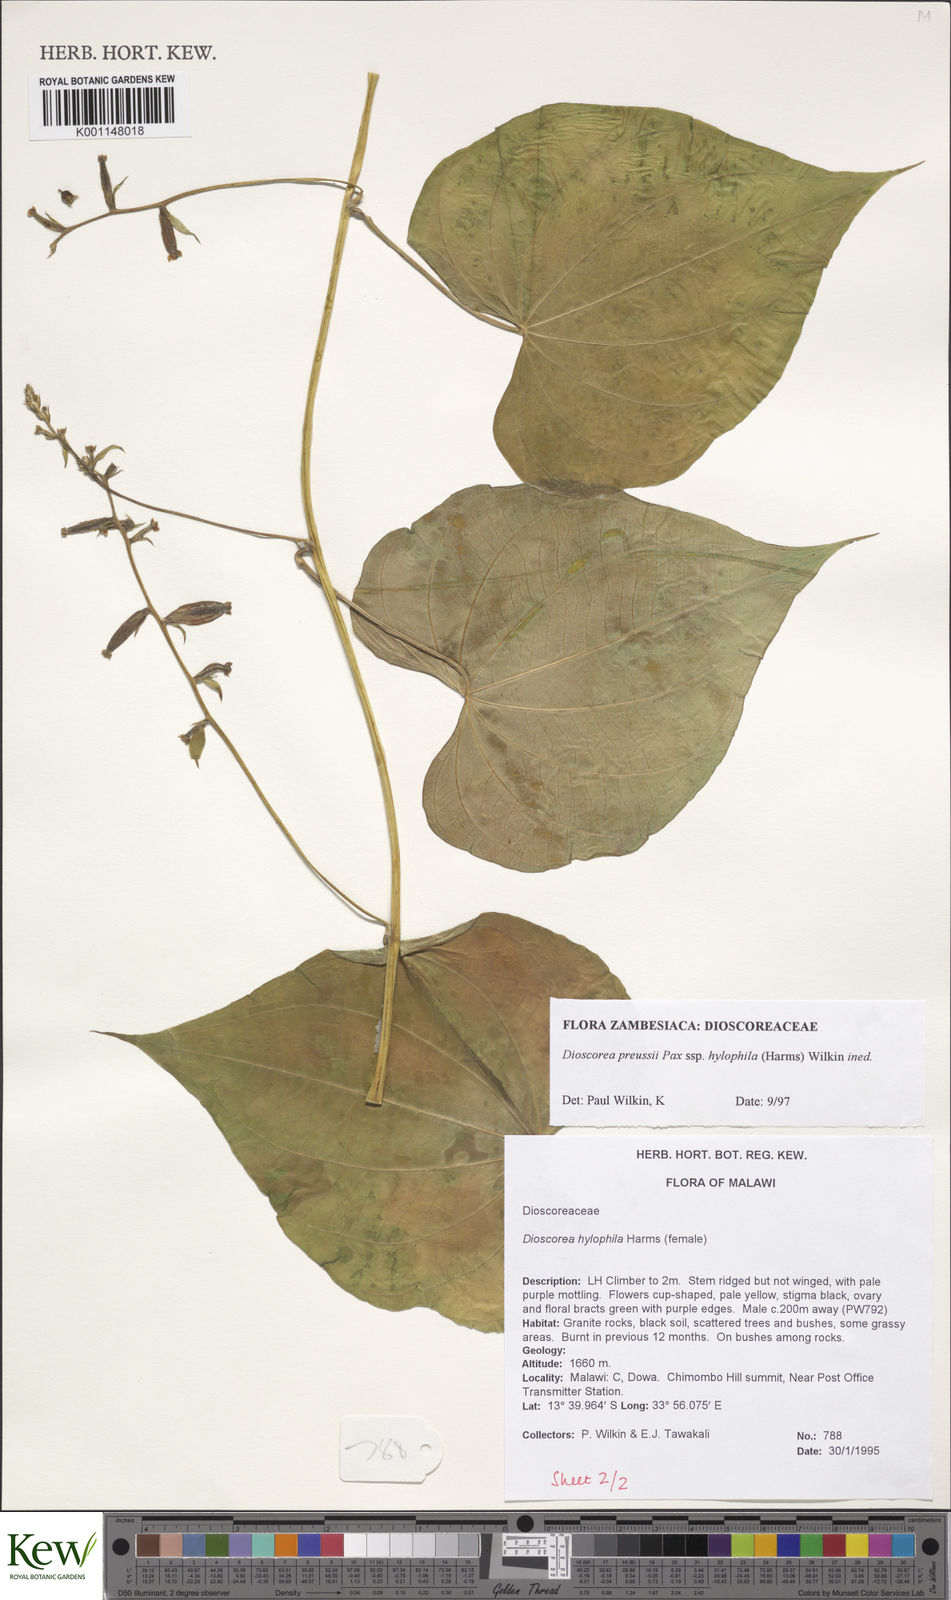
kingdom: Plantae
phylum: Tracheophyta
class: Liliopsida
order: Dioscoreales
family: Dioscoreaceae
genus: Dioscorea
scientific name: Dioscorea preussii
